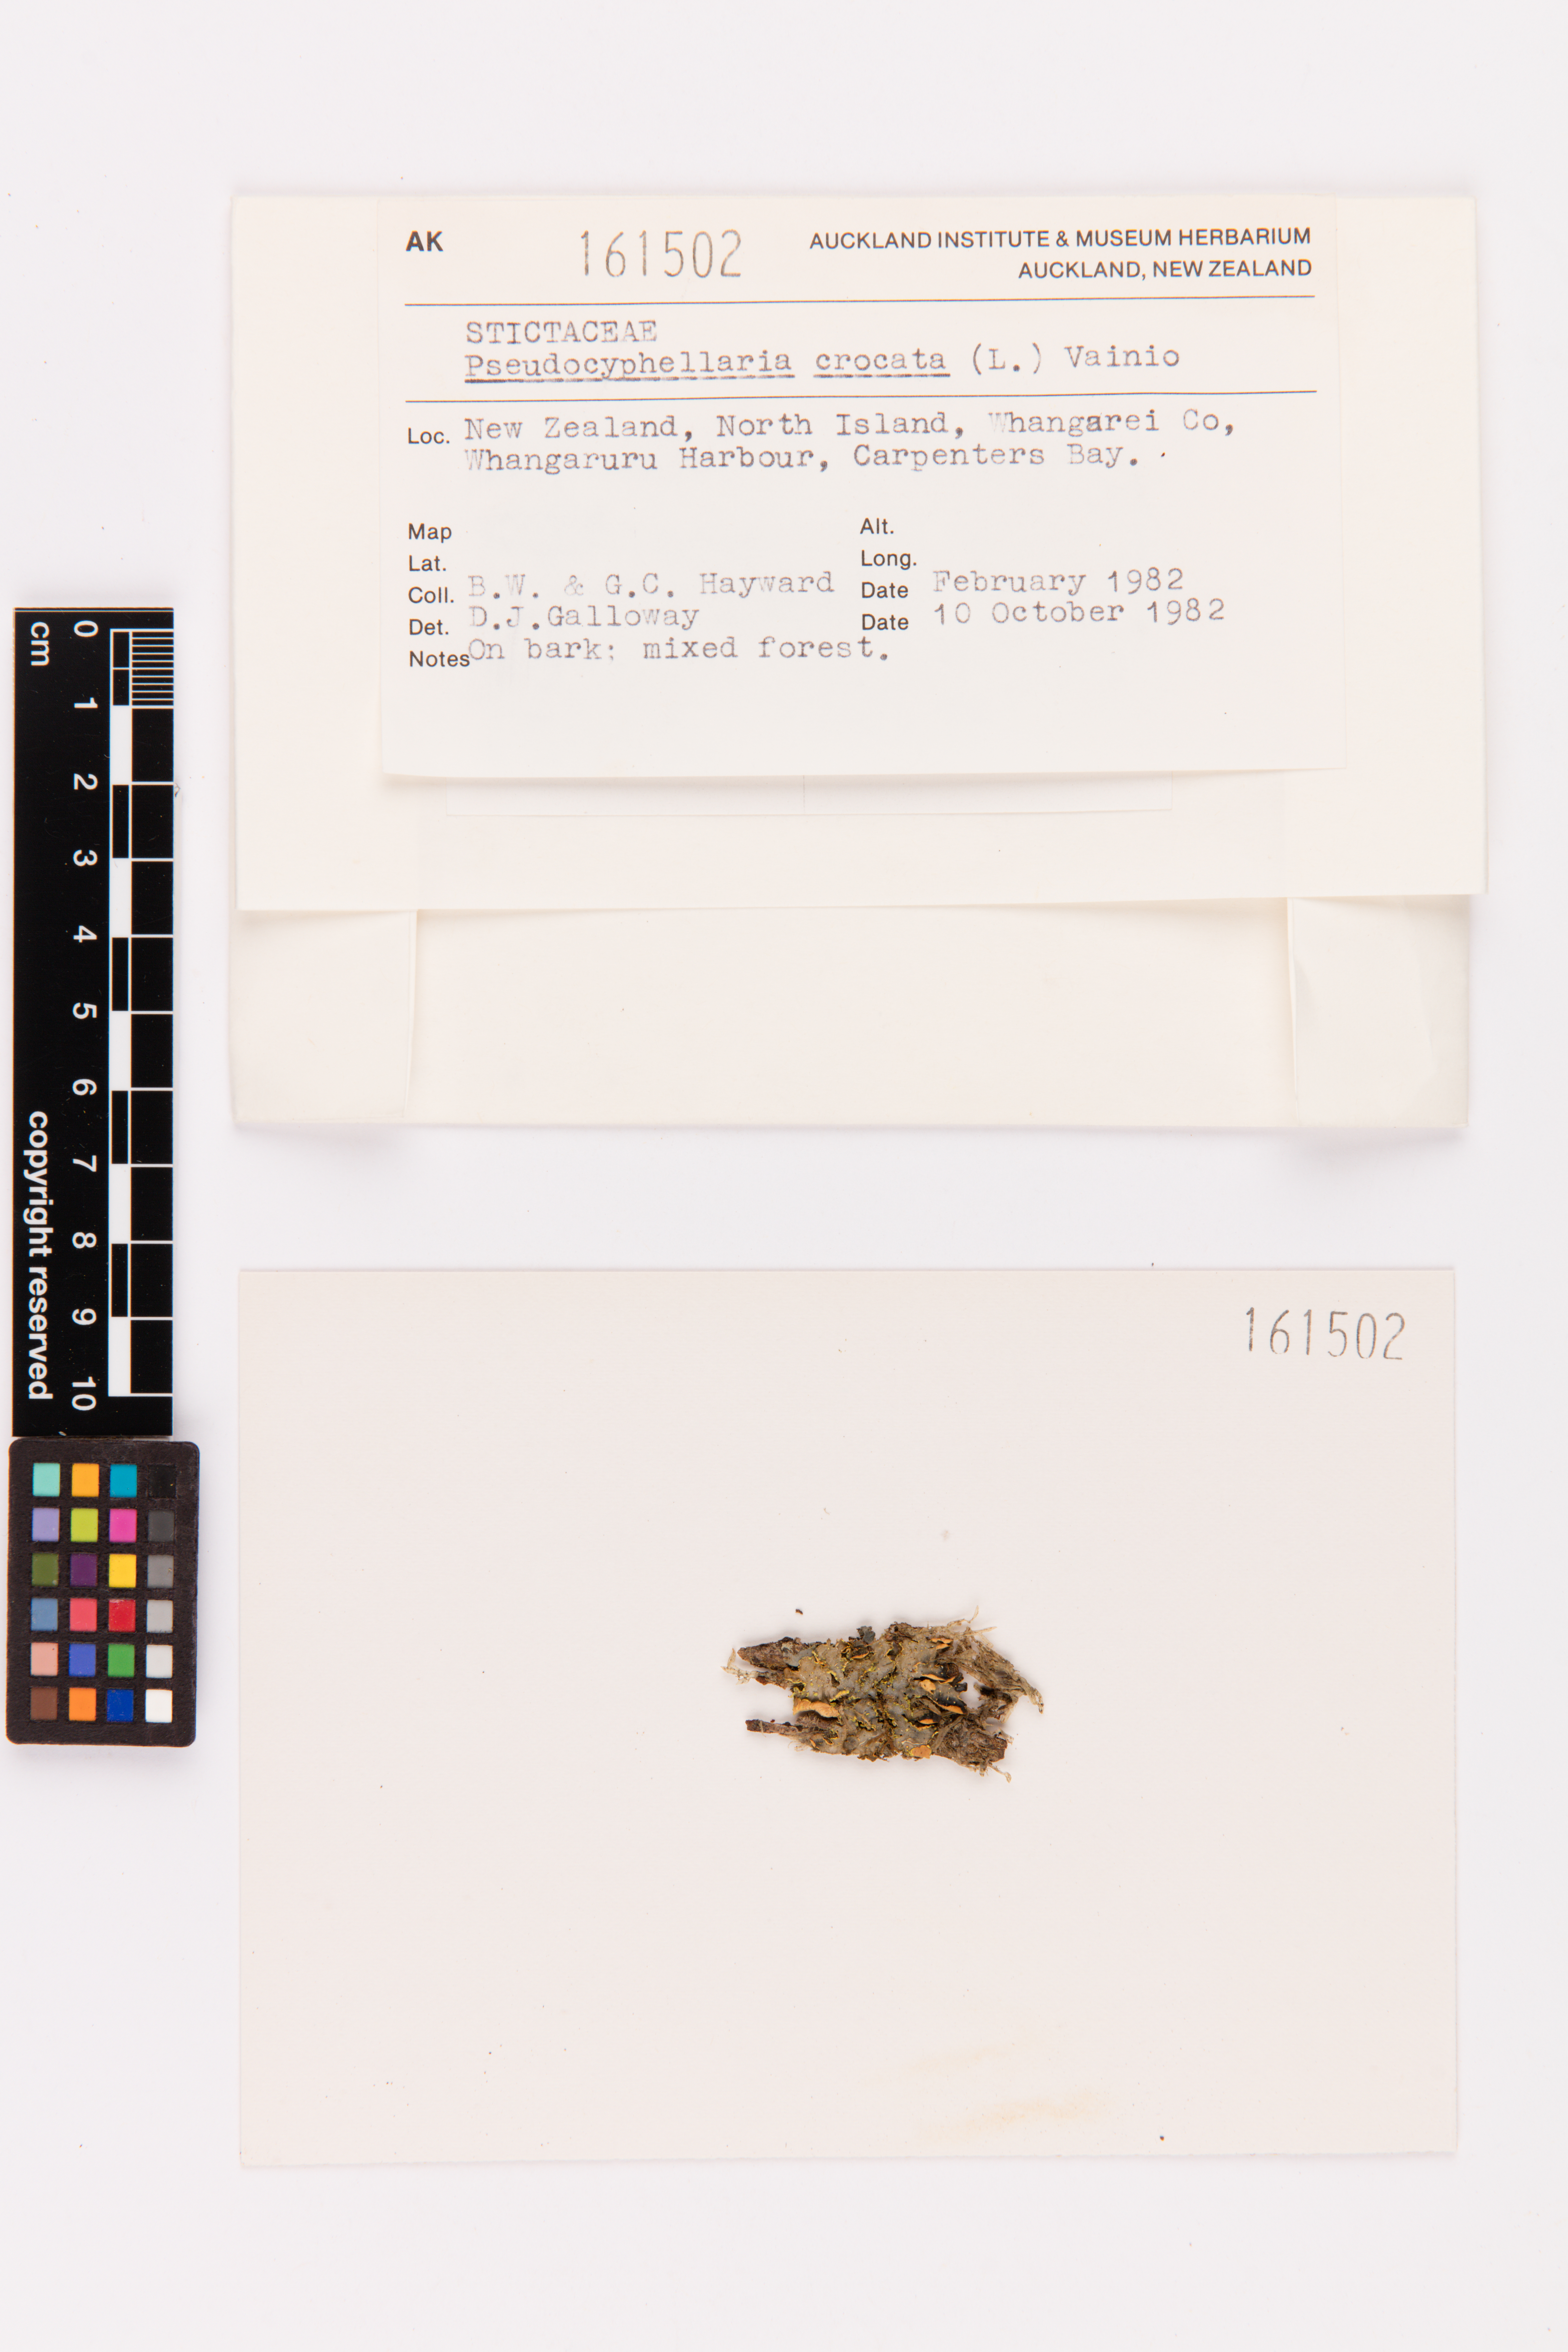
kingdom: Fungi
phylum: Ascomycota
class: Lecanoromycetes
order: Peltigerales
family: Lobariaceae
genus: Pseudocyphellaria
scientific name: Pseudocyphellaria crocata
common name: Golden specklebelly
